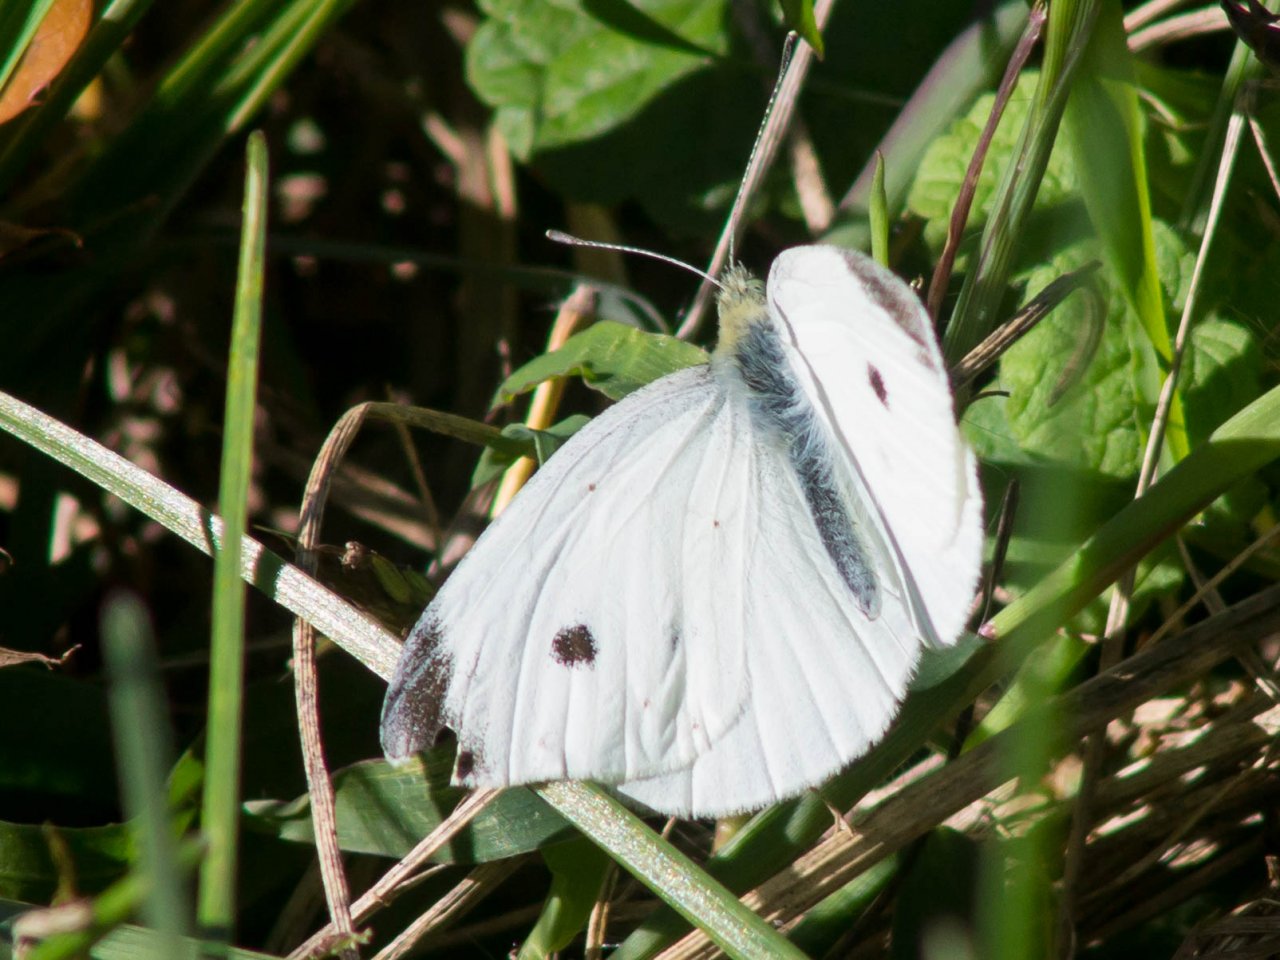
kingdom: Animalia
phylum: Arthropoda
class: Insecta
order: Lepidoptera
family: Pieridae
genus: Pieris
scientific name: Pieris rapae
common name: Cabbage White
